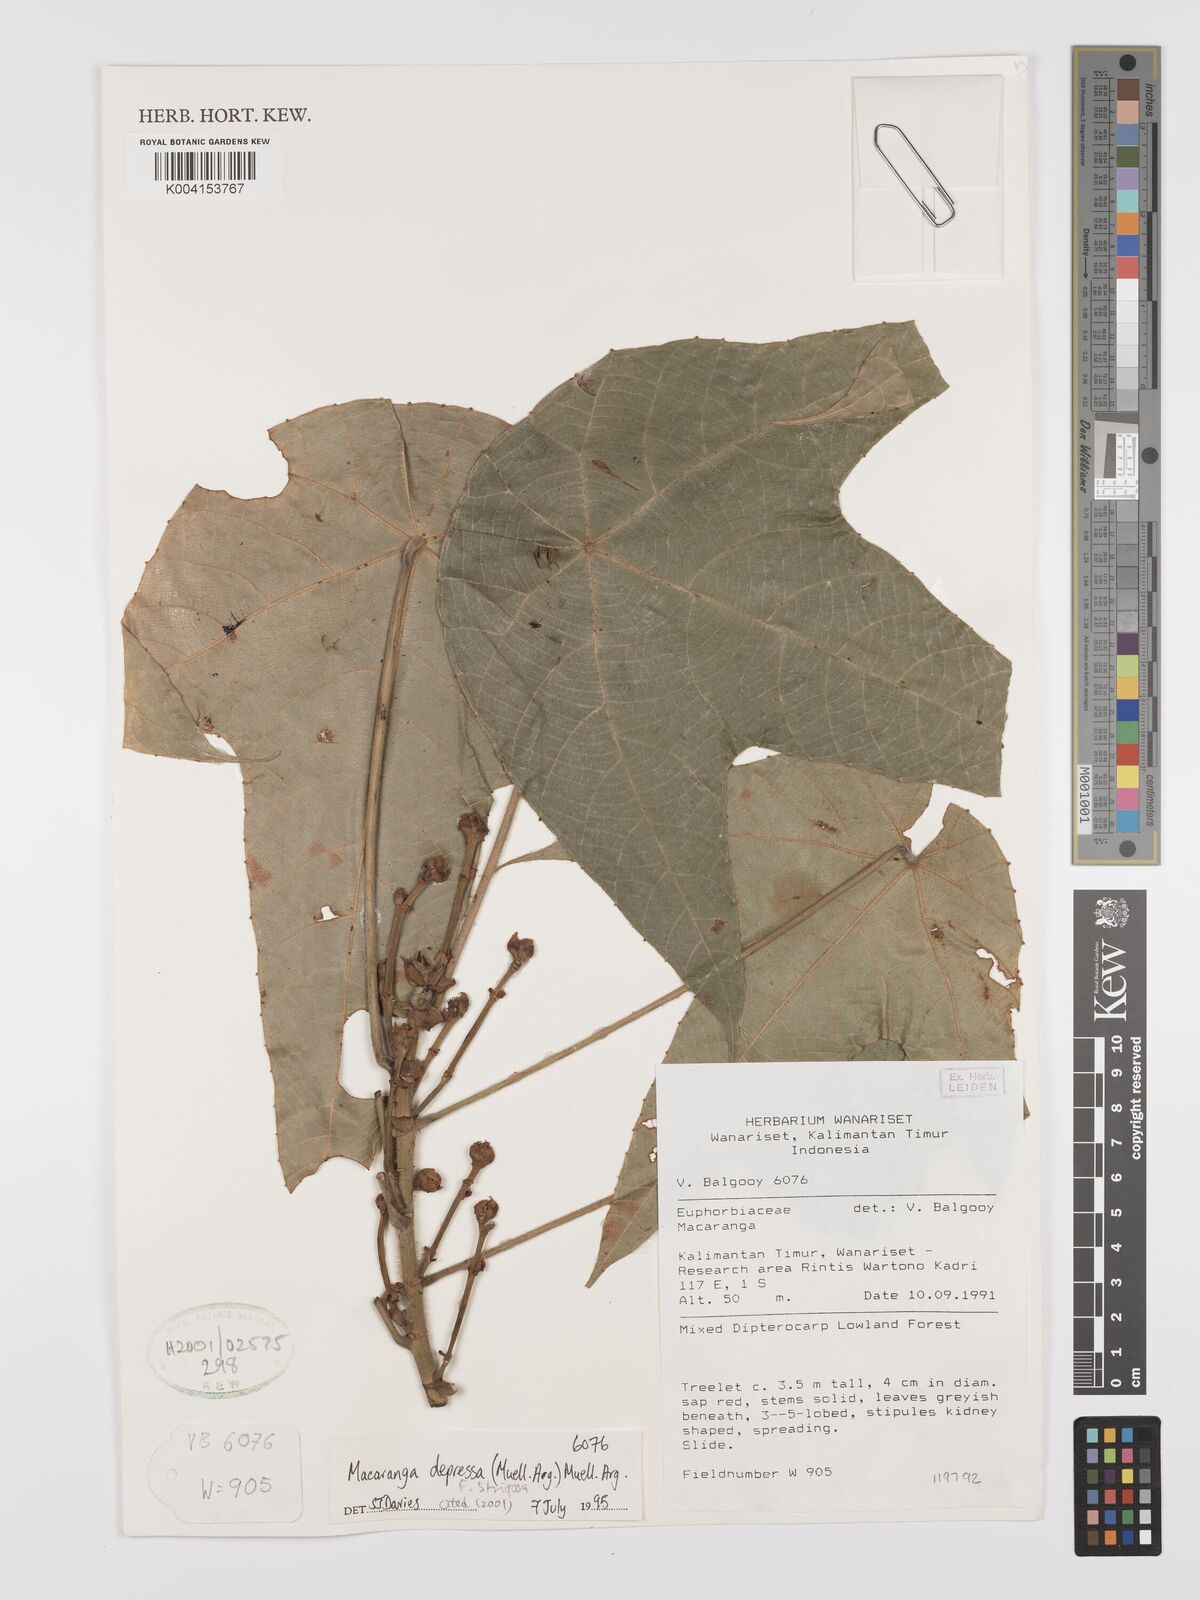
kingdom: Plantae
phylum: Tracheophyta
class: Magnoliopsida
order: Malpighiales
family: Euphorbiaceae
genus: Macaranga
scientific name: Macaranga depressa
